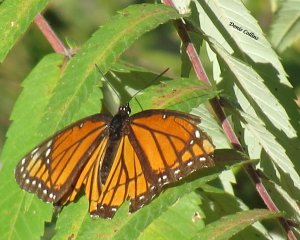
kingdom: Animalia
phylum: Arthropoda
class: Insecta
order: Lepidoptera
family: Nymphalidae
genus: Limenitis
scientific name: Limenitis archippus
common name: Viceroy
